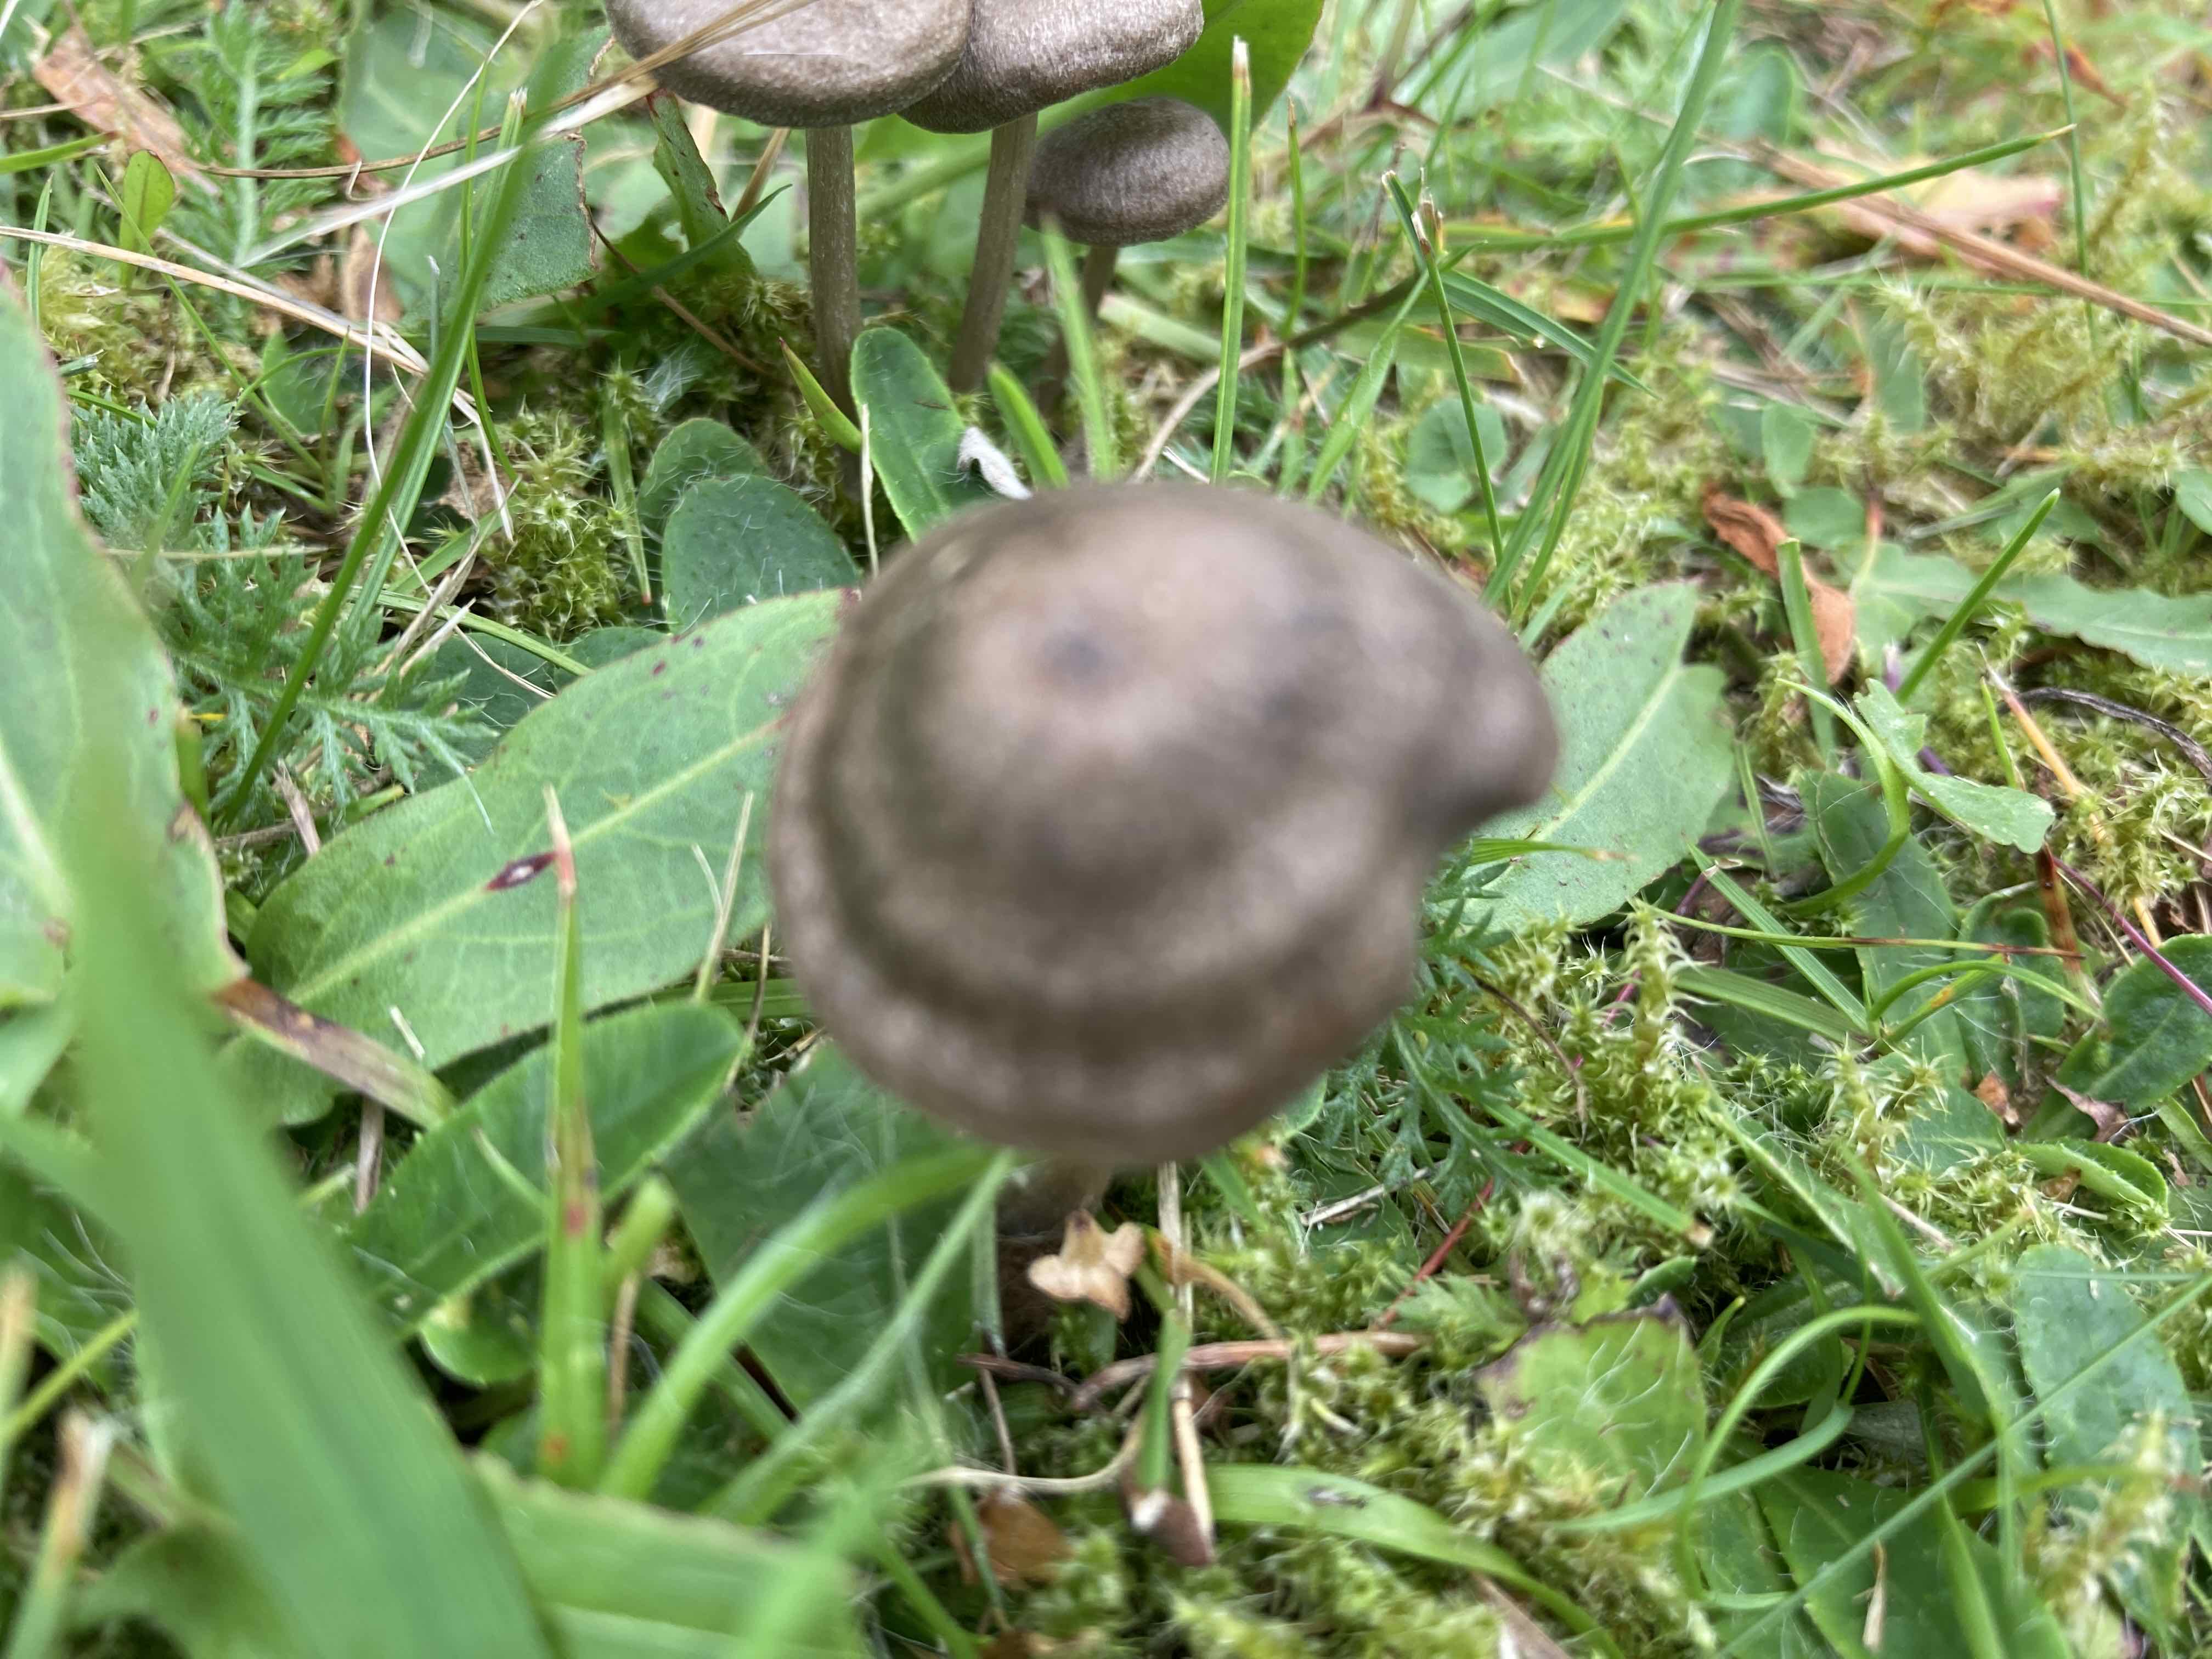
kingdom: Fungi
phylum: Basidiomycota
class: Agaricomycetes
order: Agaricales
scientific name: Agaricales
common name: champignonordenen
